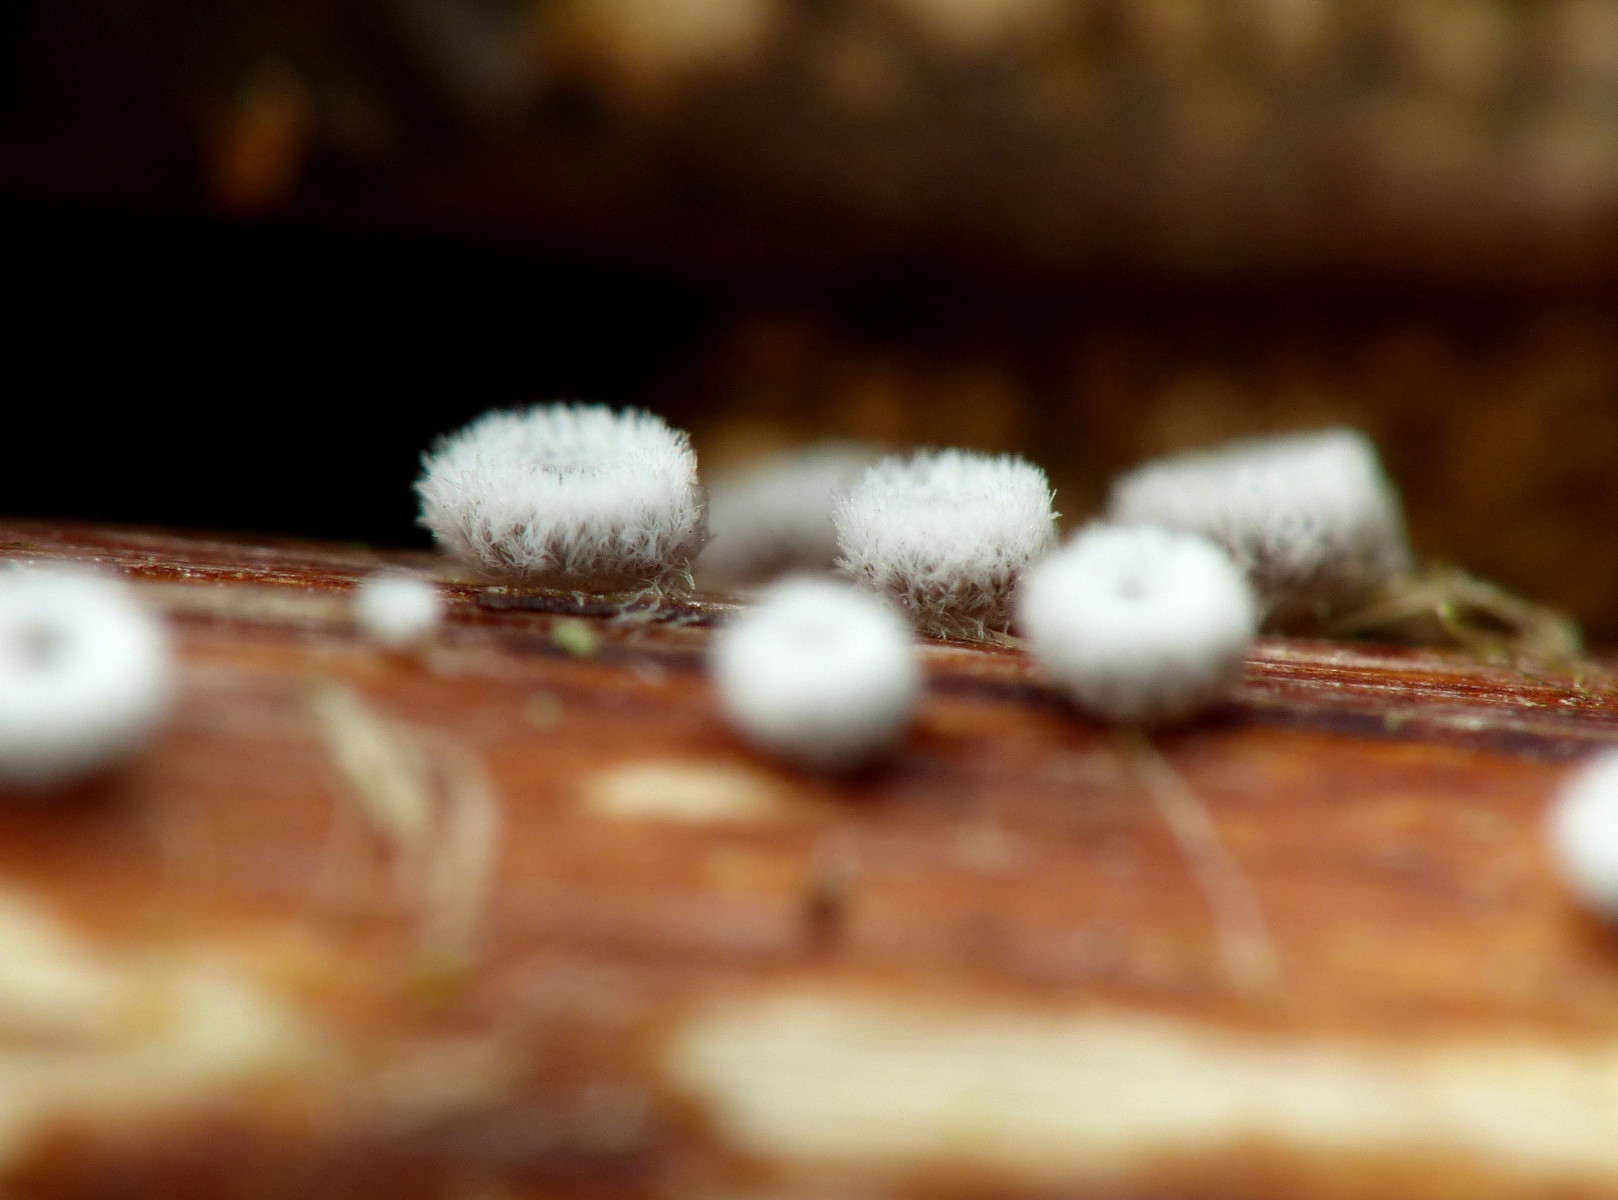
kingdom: Fungi
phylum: Basidiomycota
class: Agaricomycetes
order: Agaricales
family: Niaceae
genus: Lachnella
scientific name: Lachnella alboviolascens
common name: grå frynserede
